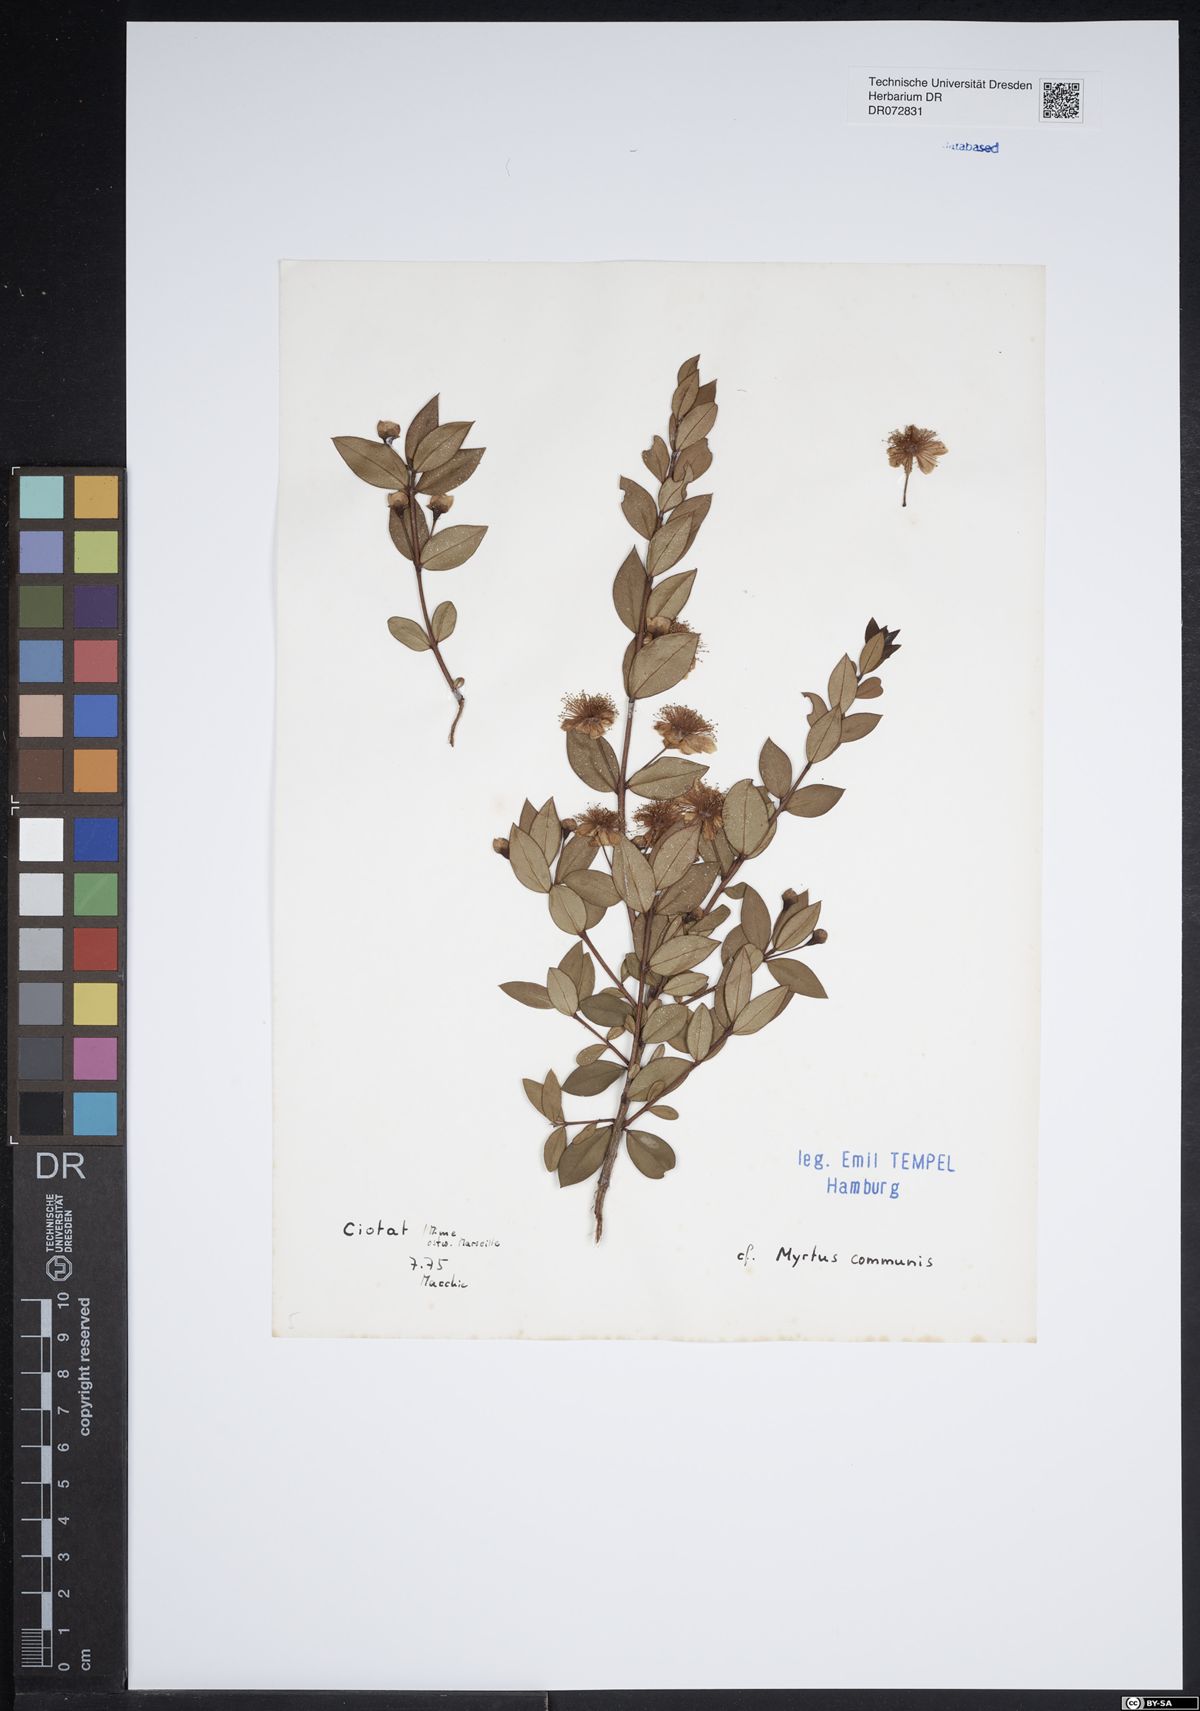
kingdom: Plantae
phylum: Tracheophyta
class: Magnoliopsida
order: Myrtales
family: Myrtaceae
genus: Myrtus
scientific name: Myrtus communis
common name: Myrtle
